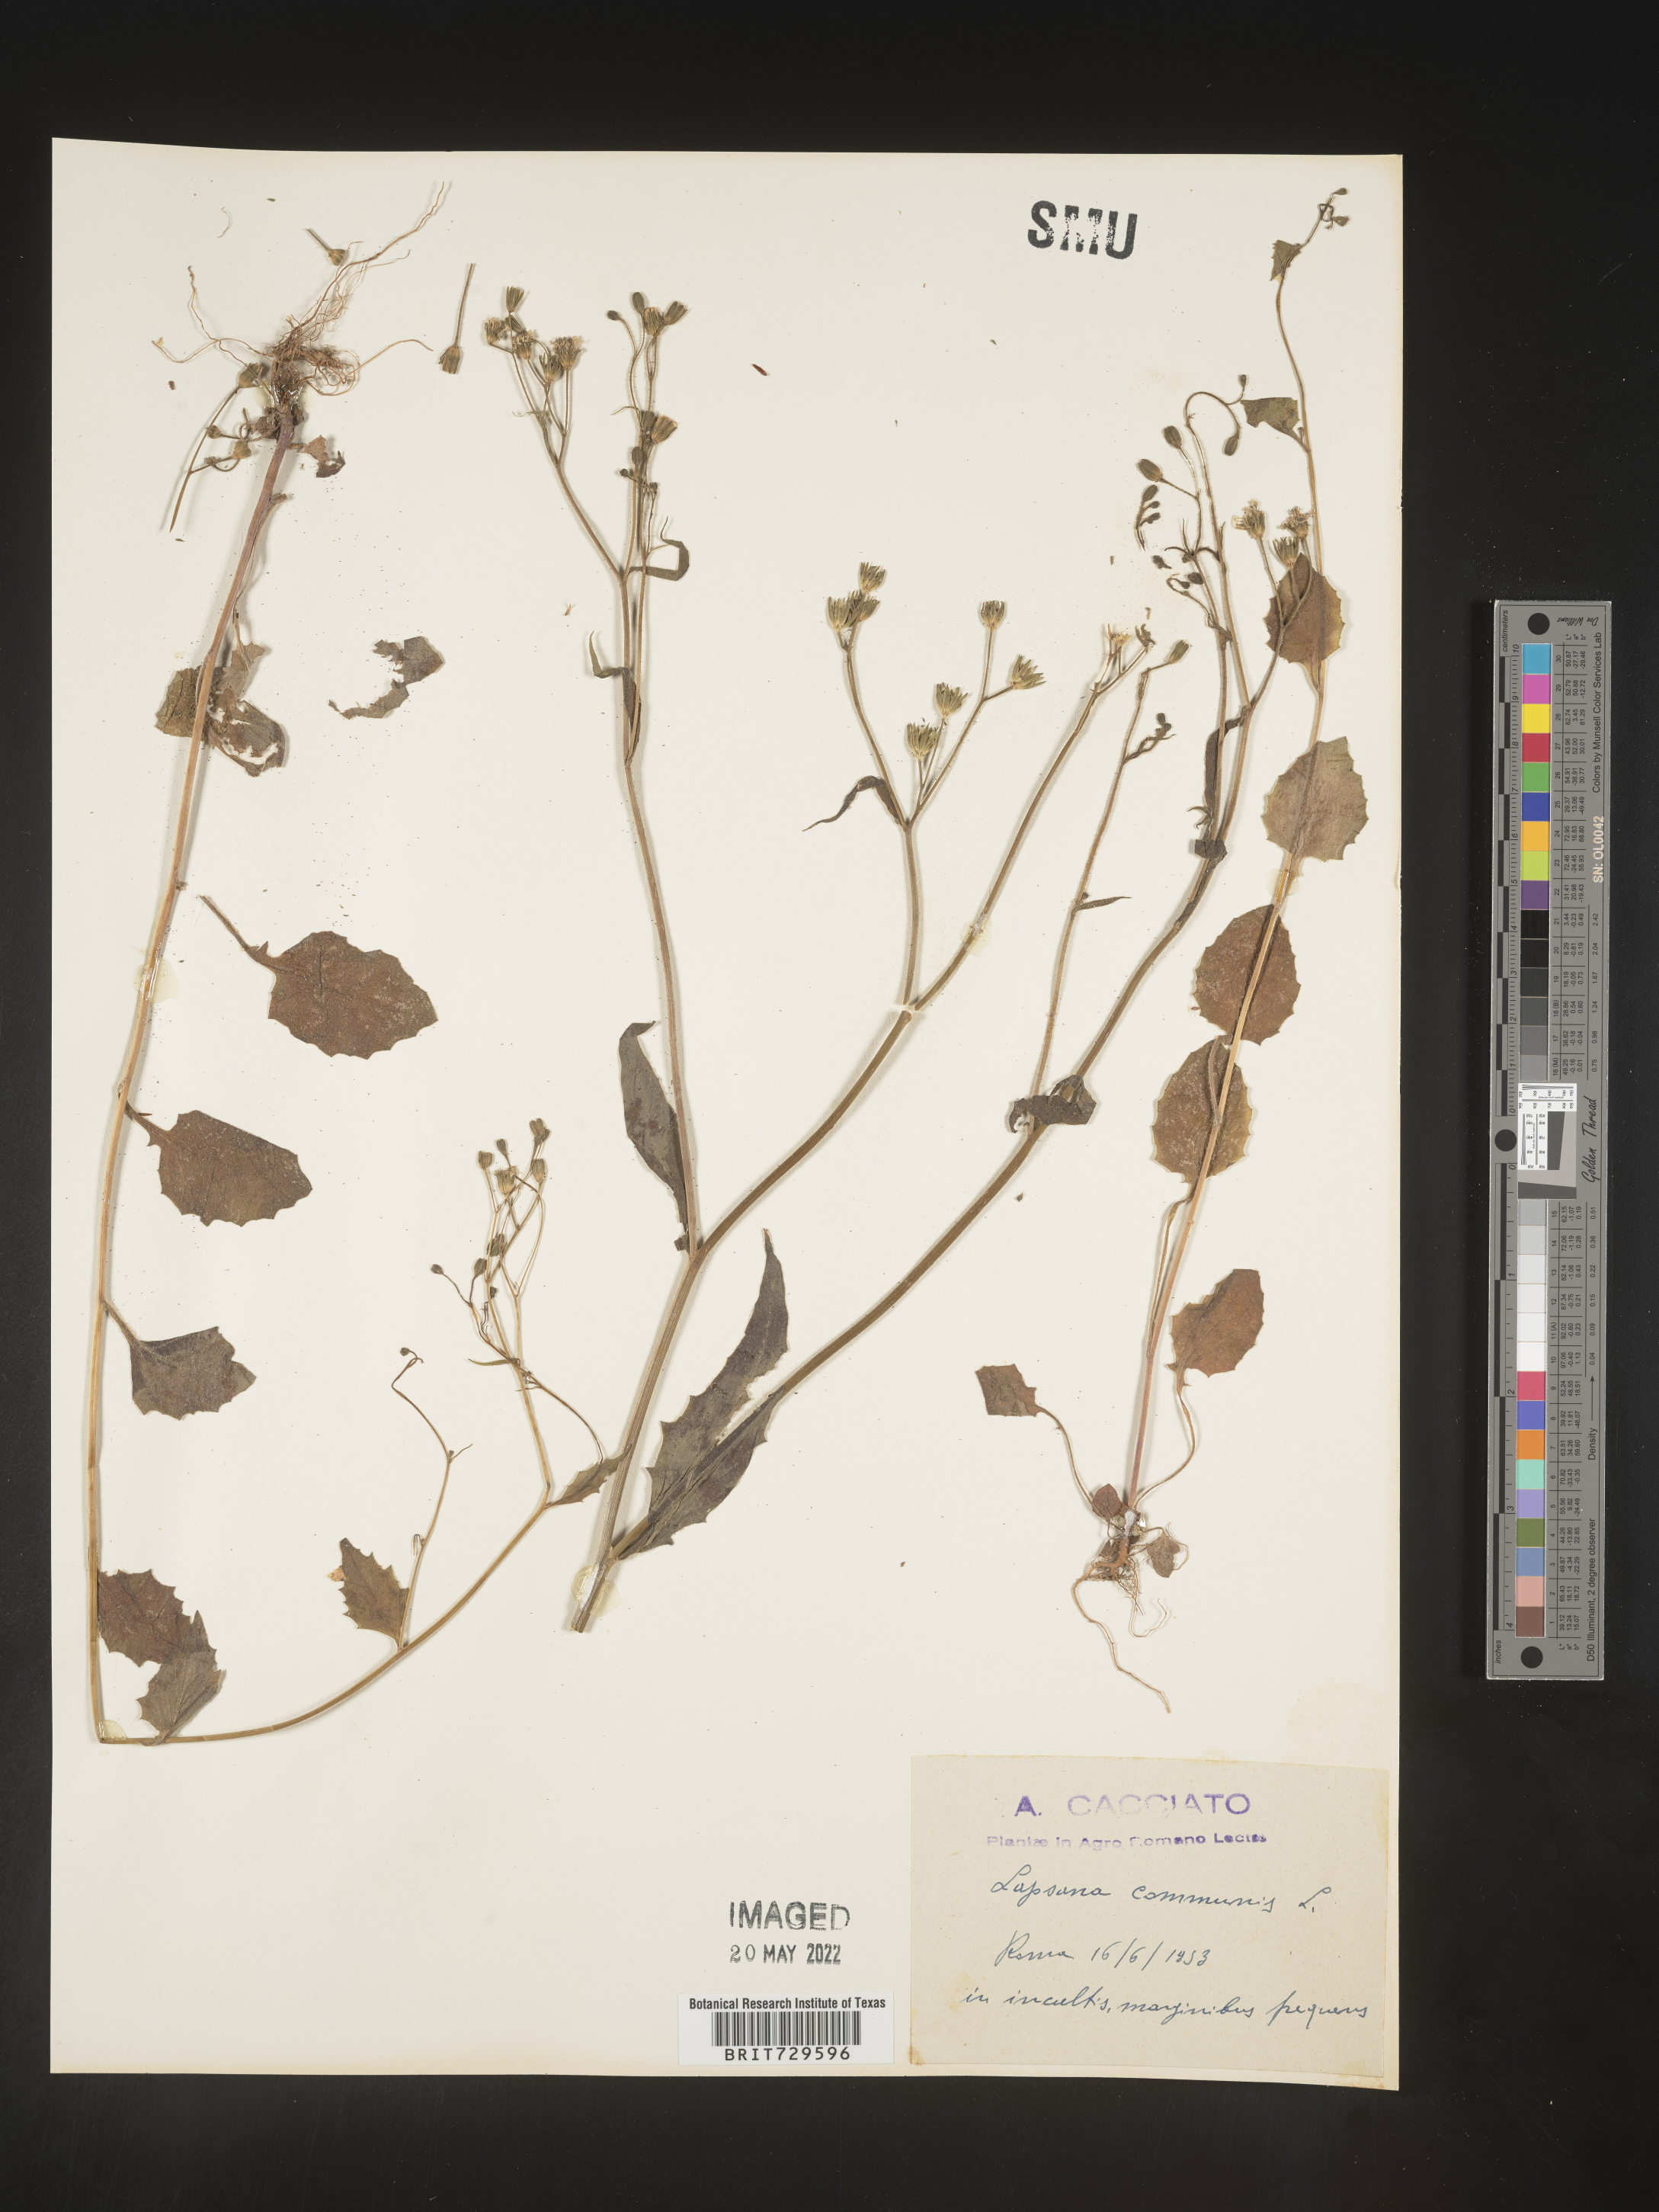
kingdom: Plantae
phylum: Tracheophyta
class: Magnoliopsida
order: Asterales
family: Asteraceae
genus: Lapsana
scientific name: Lapsana
